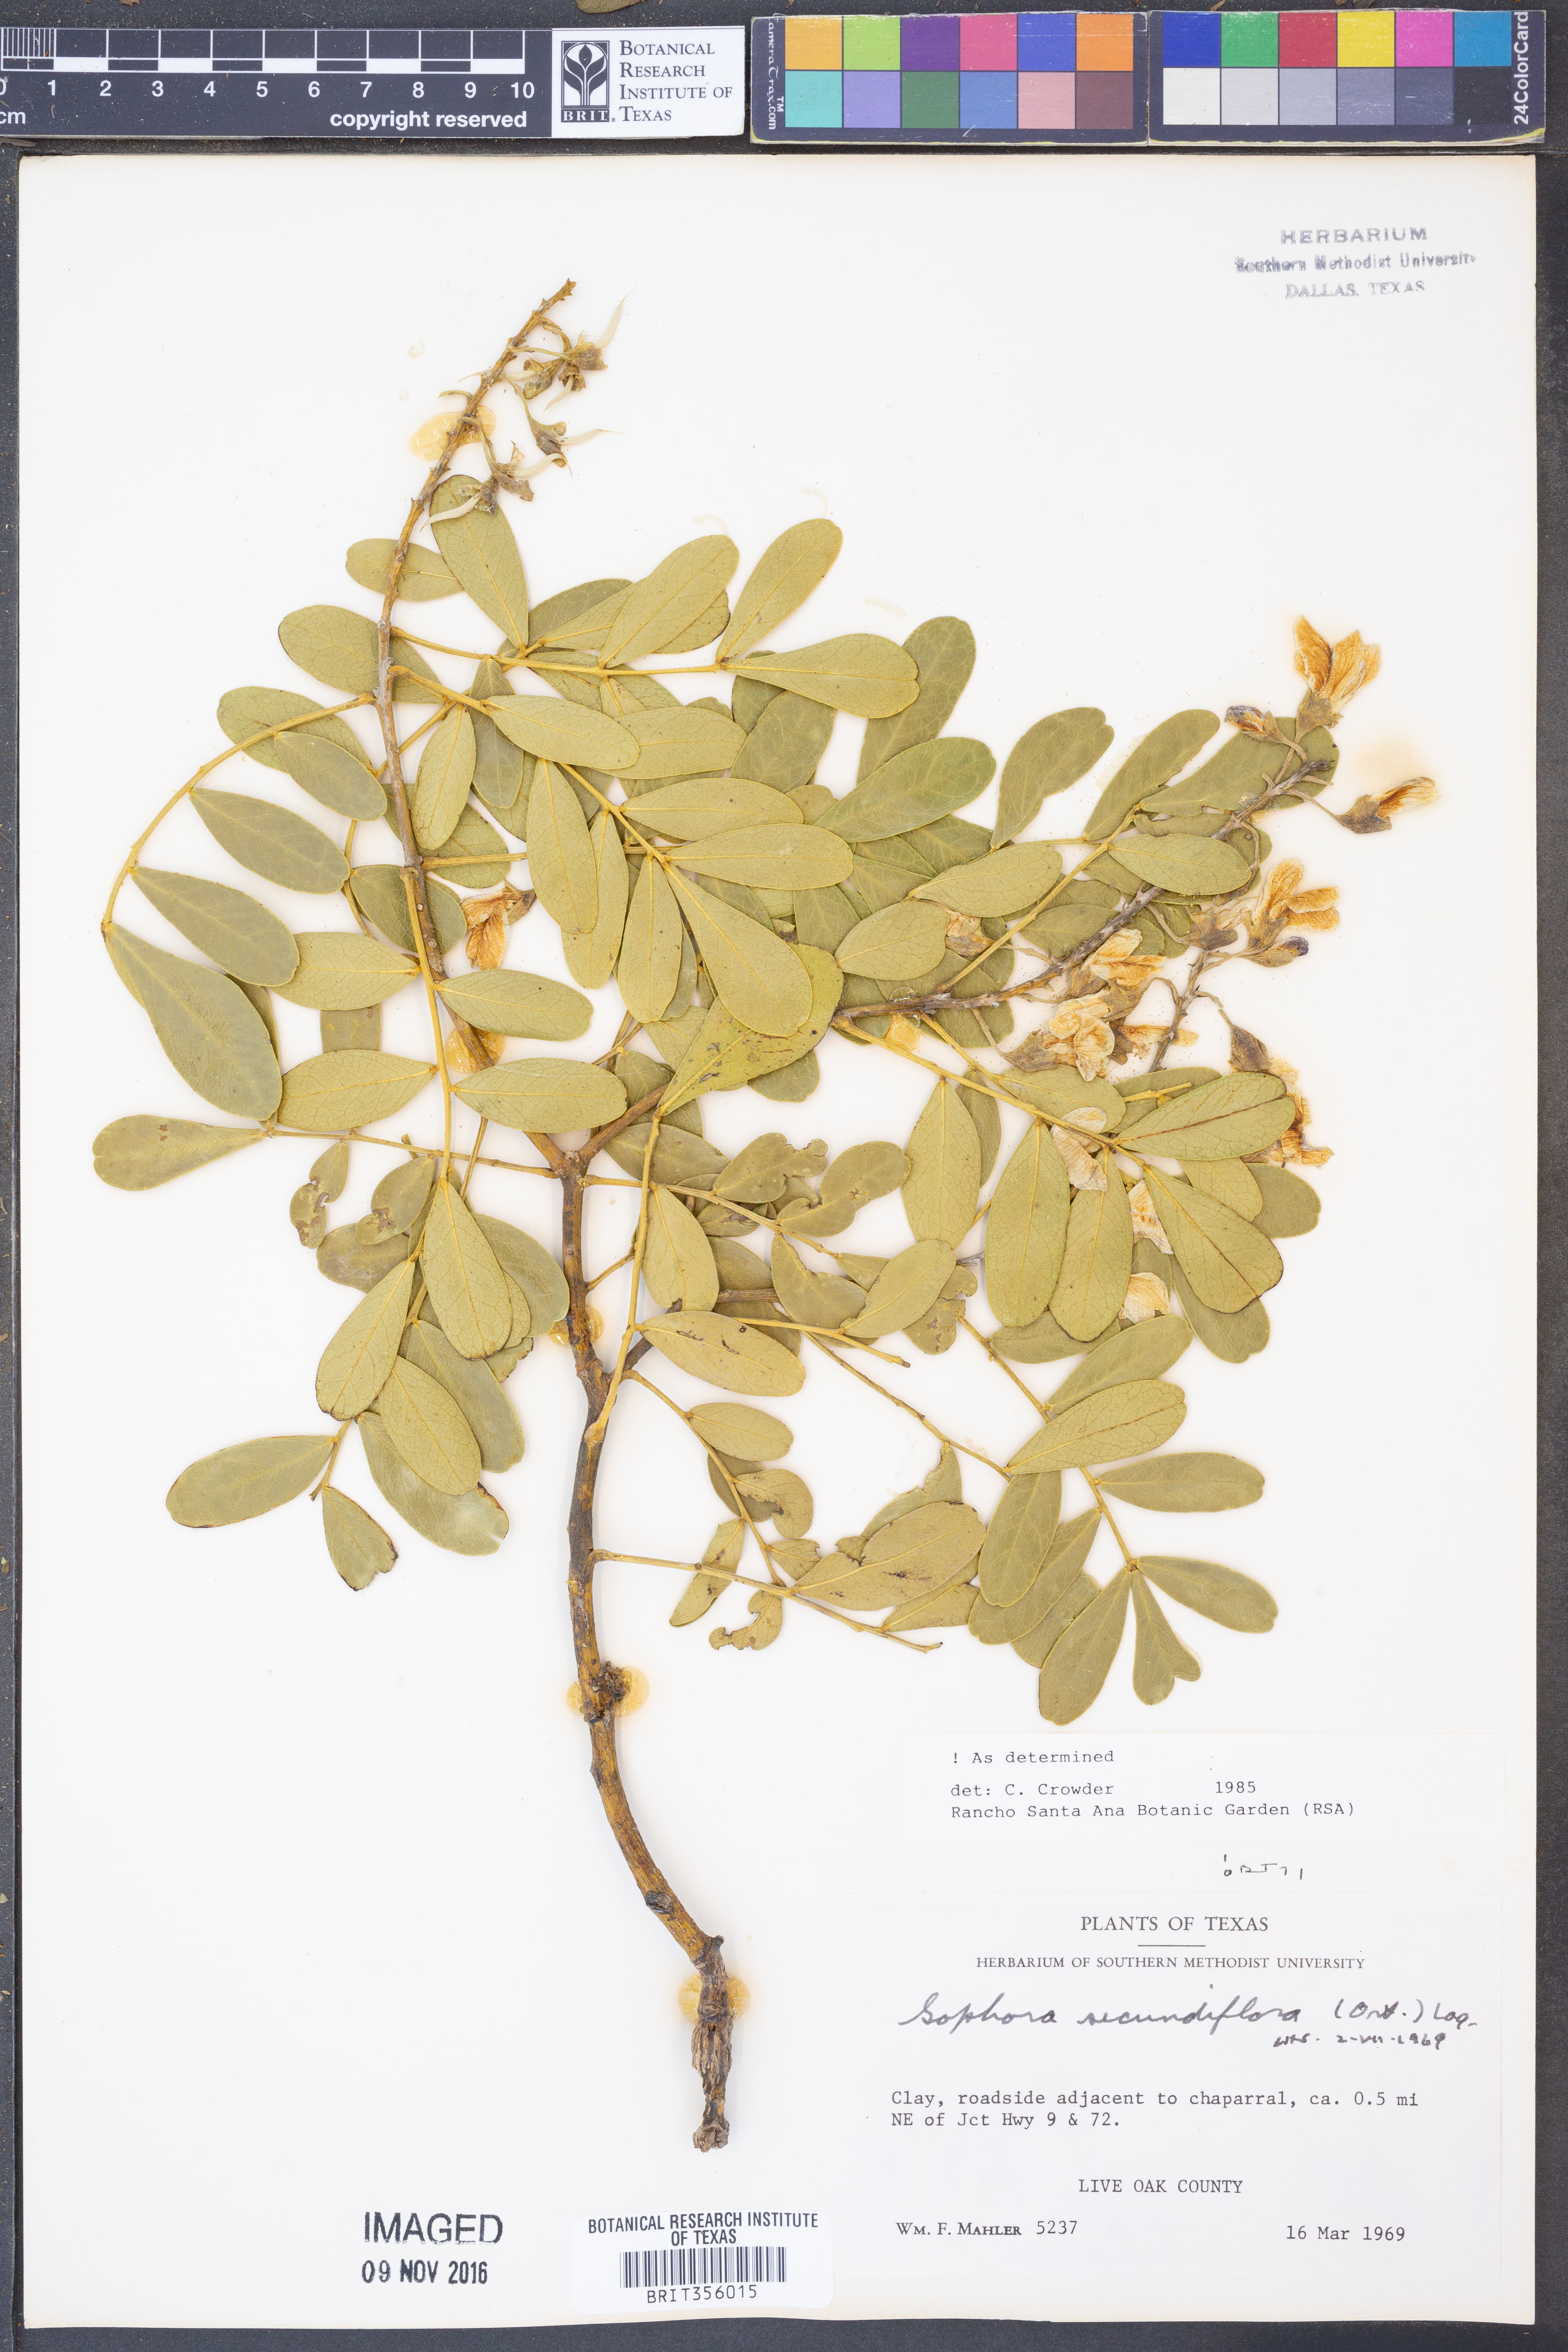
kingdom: Plantae
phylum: Tracheophyta
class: Magnoliopsida
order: Fabales
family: Fabaceae
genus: Dermatophyllum
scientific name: Dermatophyllum secundiflorum
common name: Texas-mountain-laurel
